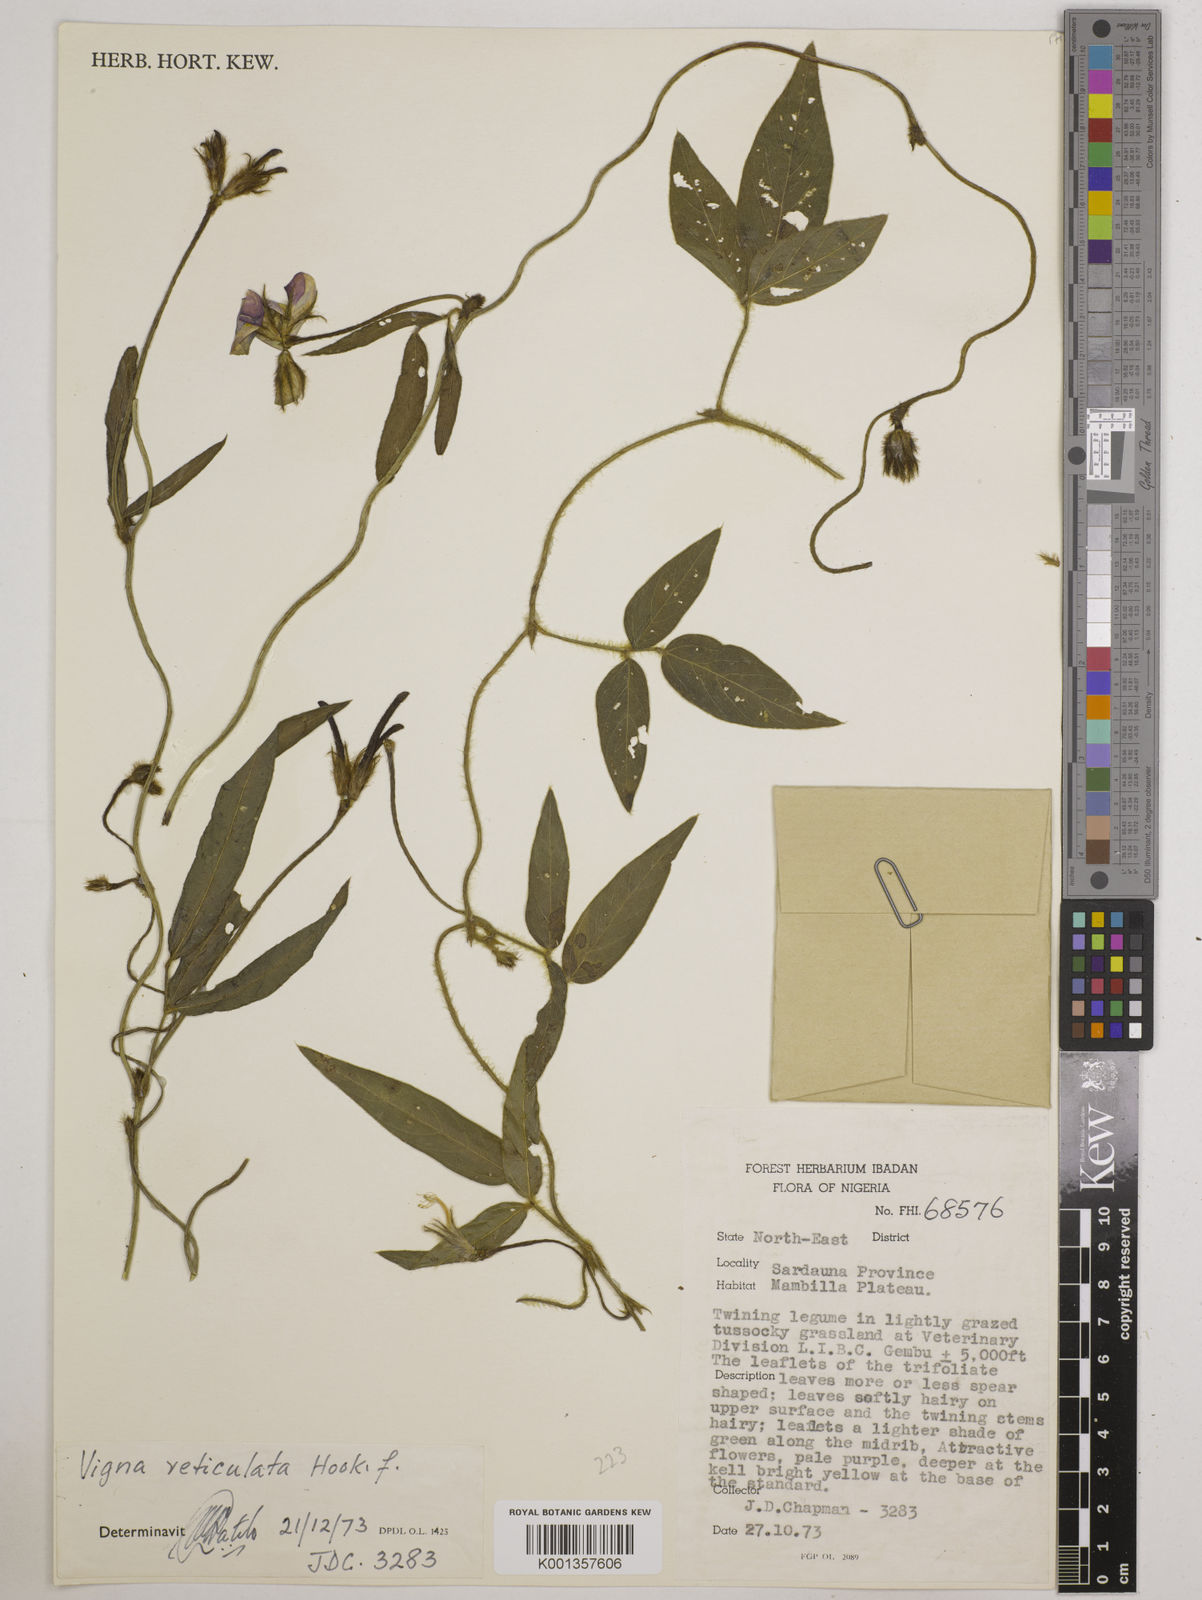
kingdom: Plantae
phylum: Tracheophyta
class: Magnoliopsida
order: Fabales
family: Fabaceae
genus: Vigna
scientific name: Vigna reticulata
